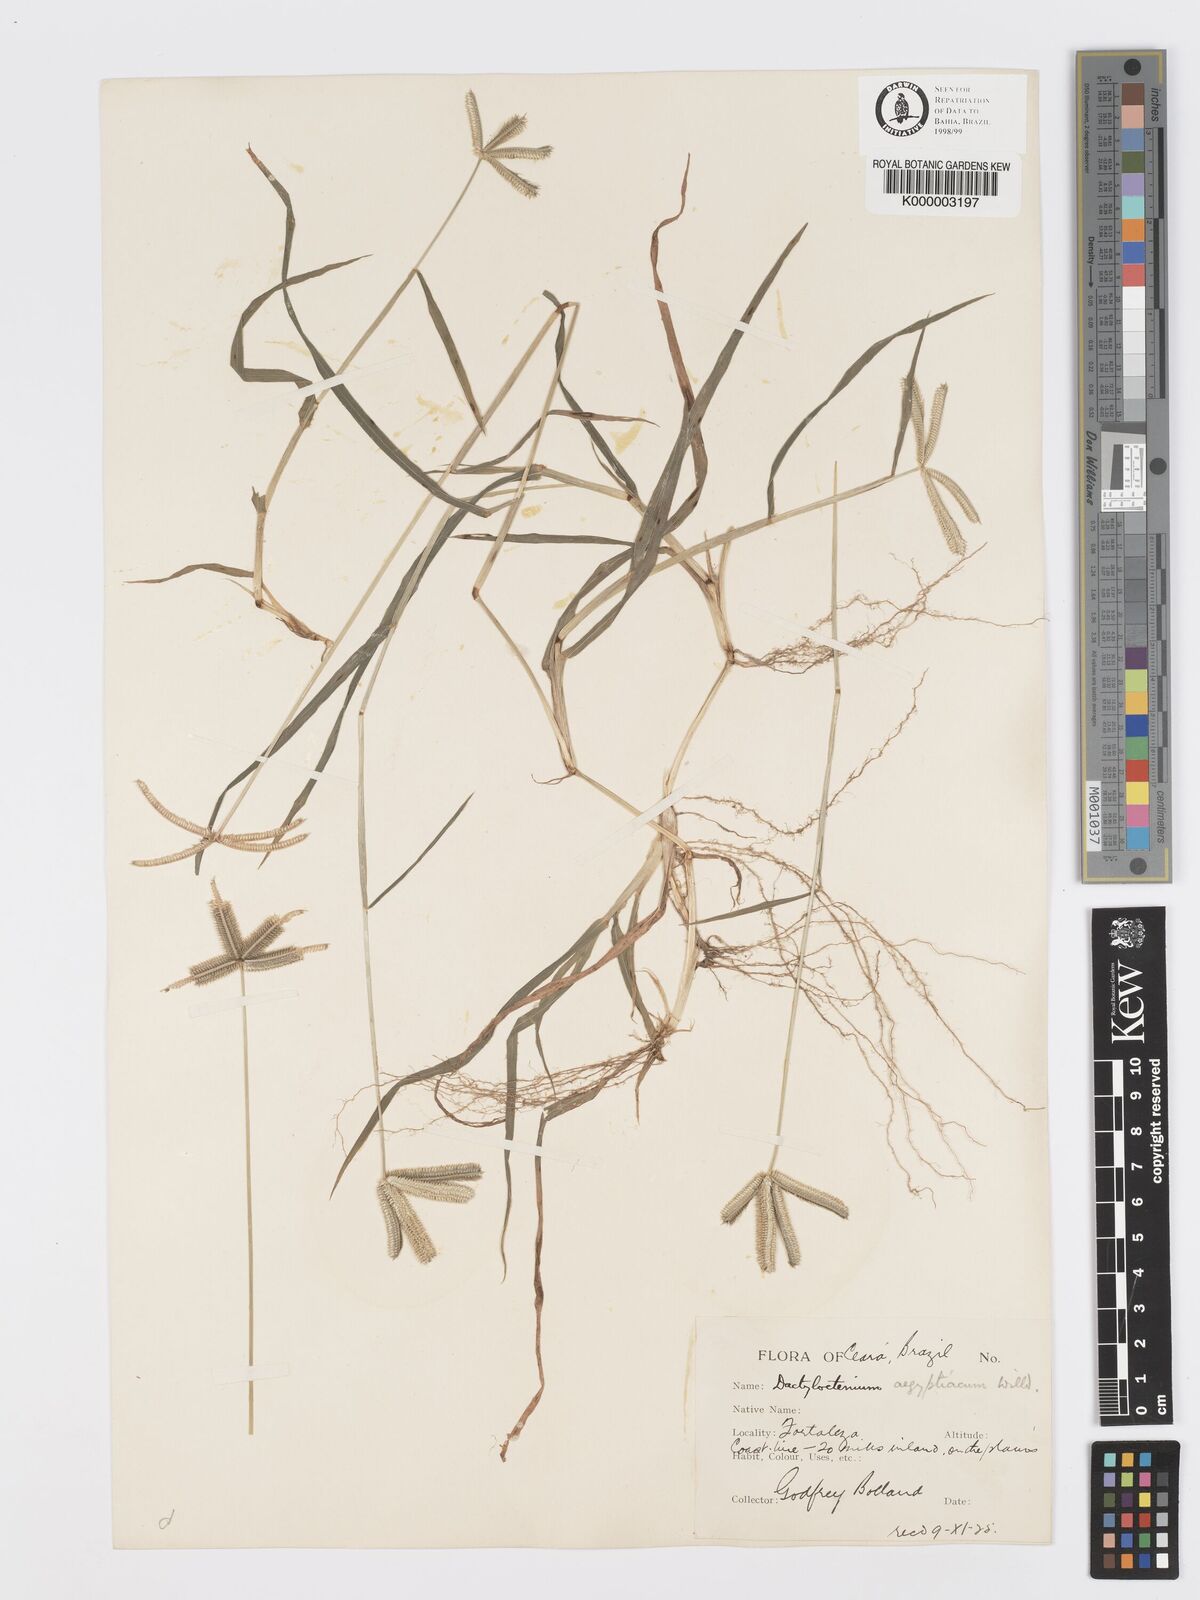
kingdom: Plantae
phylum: Tracheophyta
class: Liliopsida
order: Poales
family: Poaceae
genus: Dactyloctenium
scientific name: Dactyloctenium aegyptium
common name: Egyptian grass
